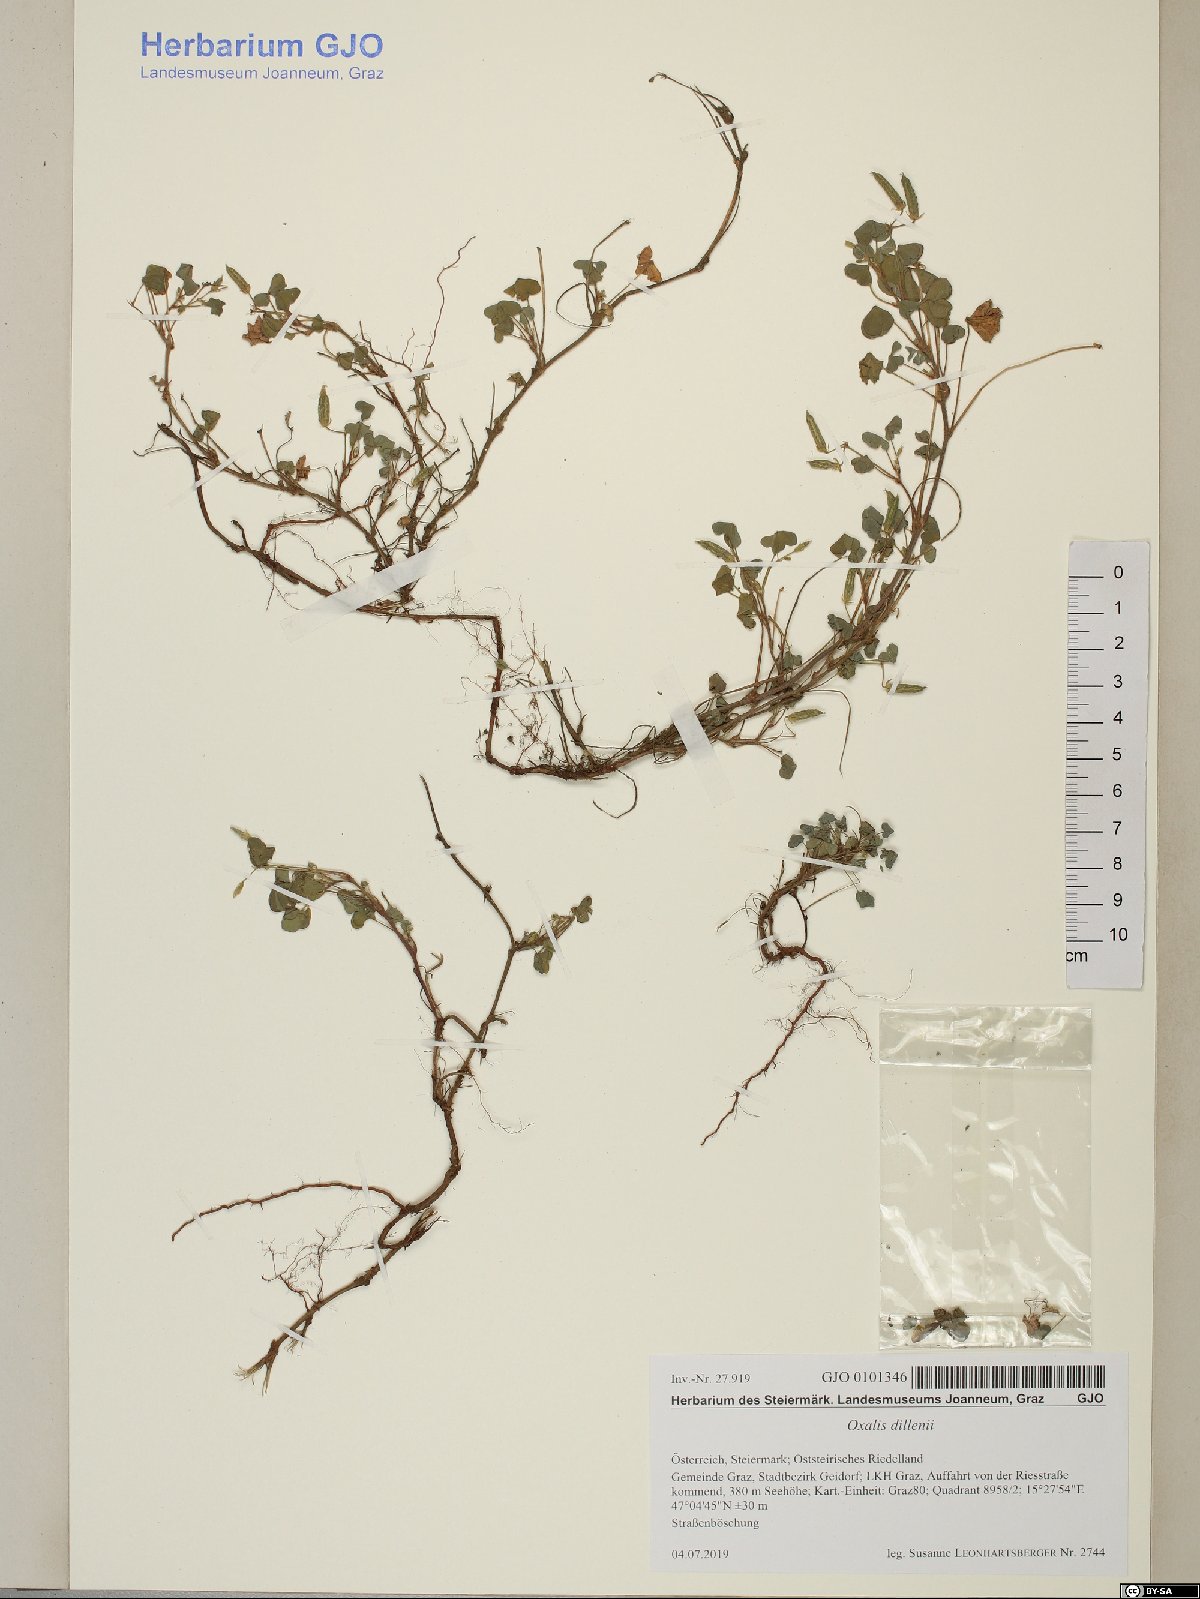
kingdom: Plantae
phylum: Tracheophyta
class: Magnoliopsida
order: Oxalidales
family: Oxalidaceae
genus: Oxalis
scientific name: Oxalis corniculata
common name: Procumbent yellow-sorrel
